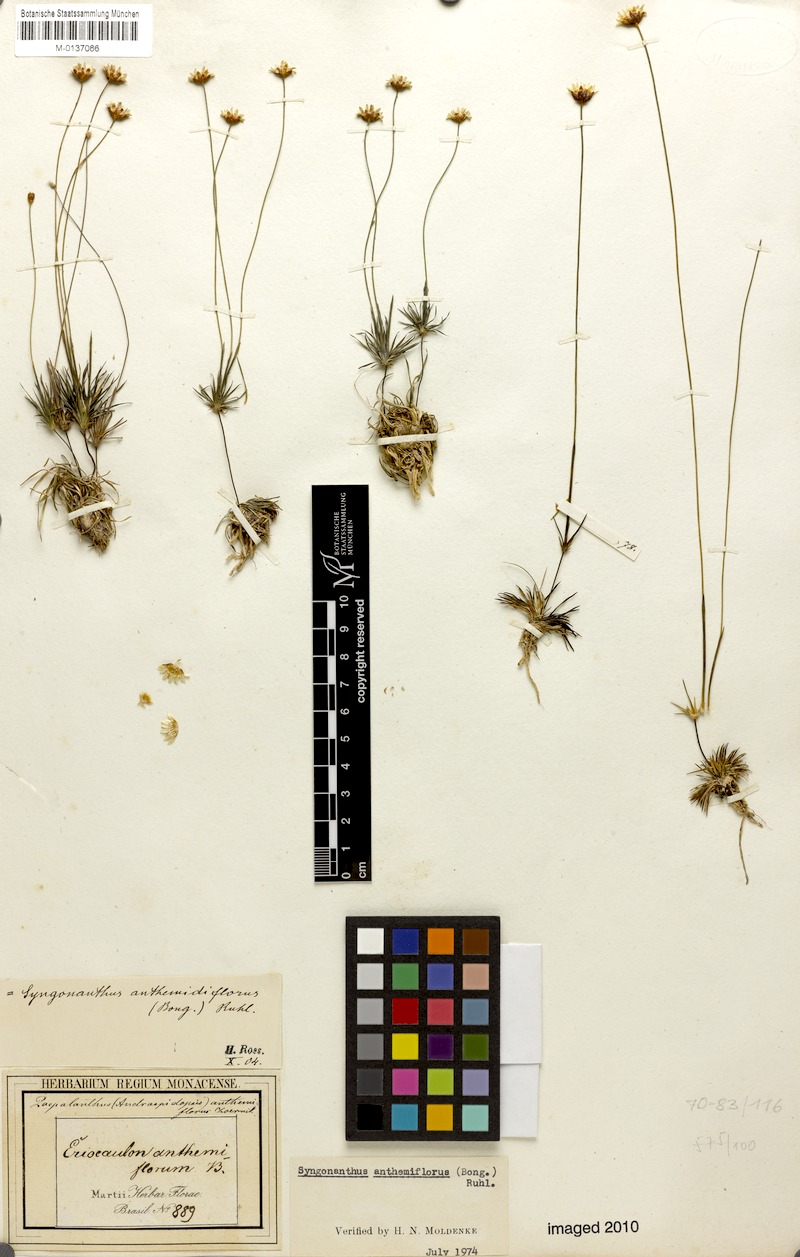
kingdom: Plantae
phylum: Tracheophyta
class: Liliopsida
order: Poales
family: Eriocaulaceae
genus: Syngonanthus
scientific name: Syngonanthus anthemiflorus
